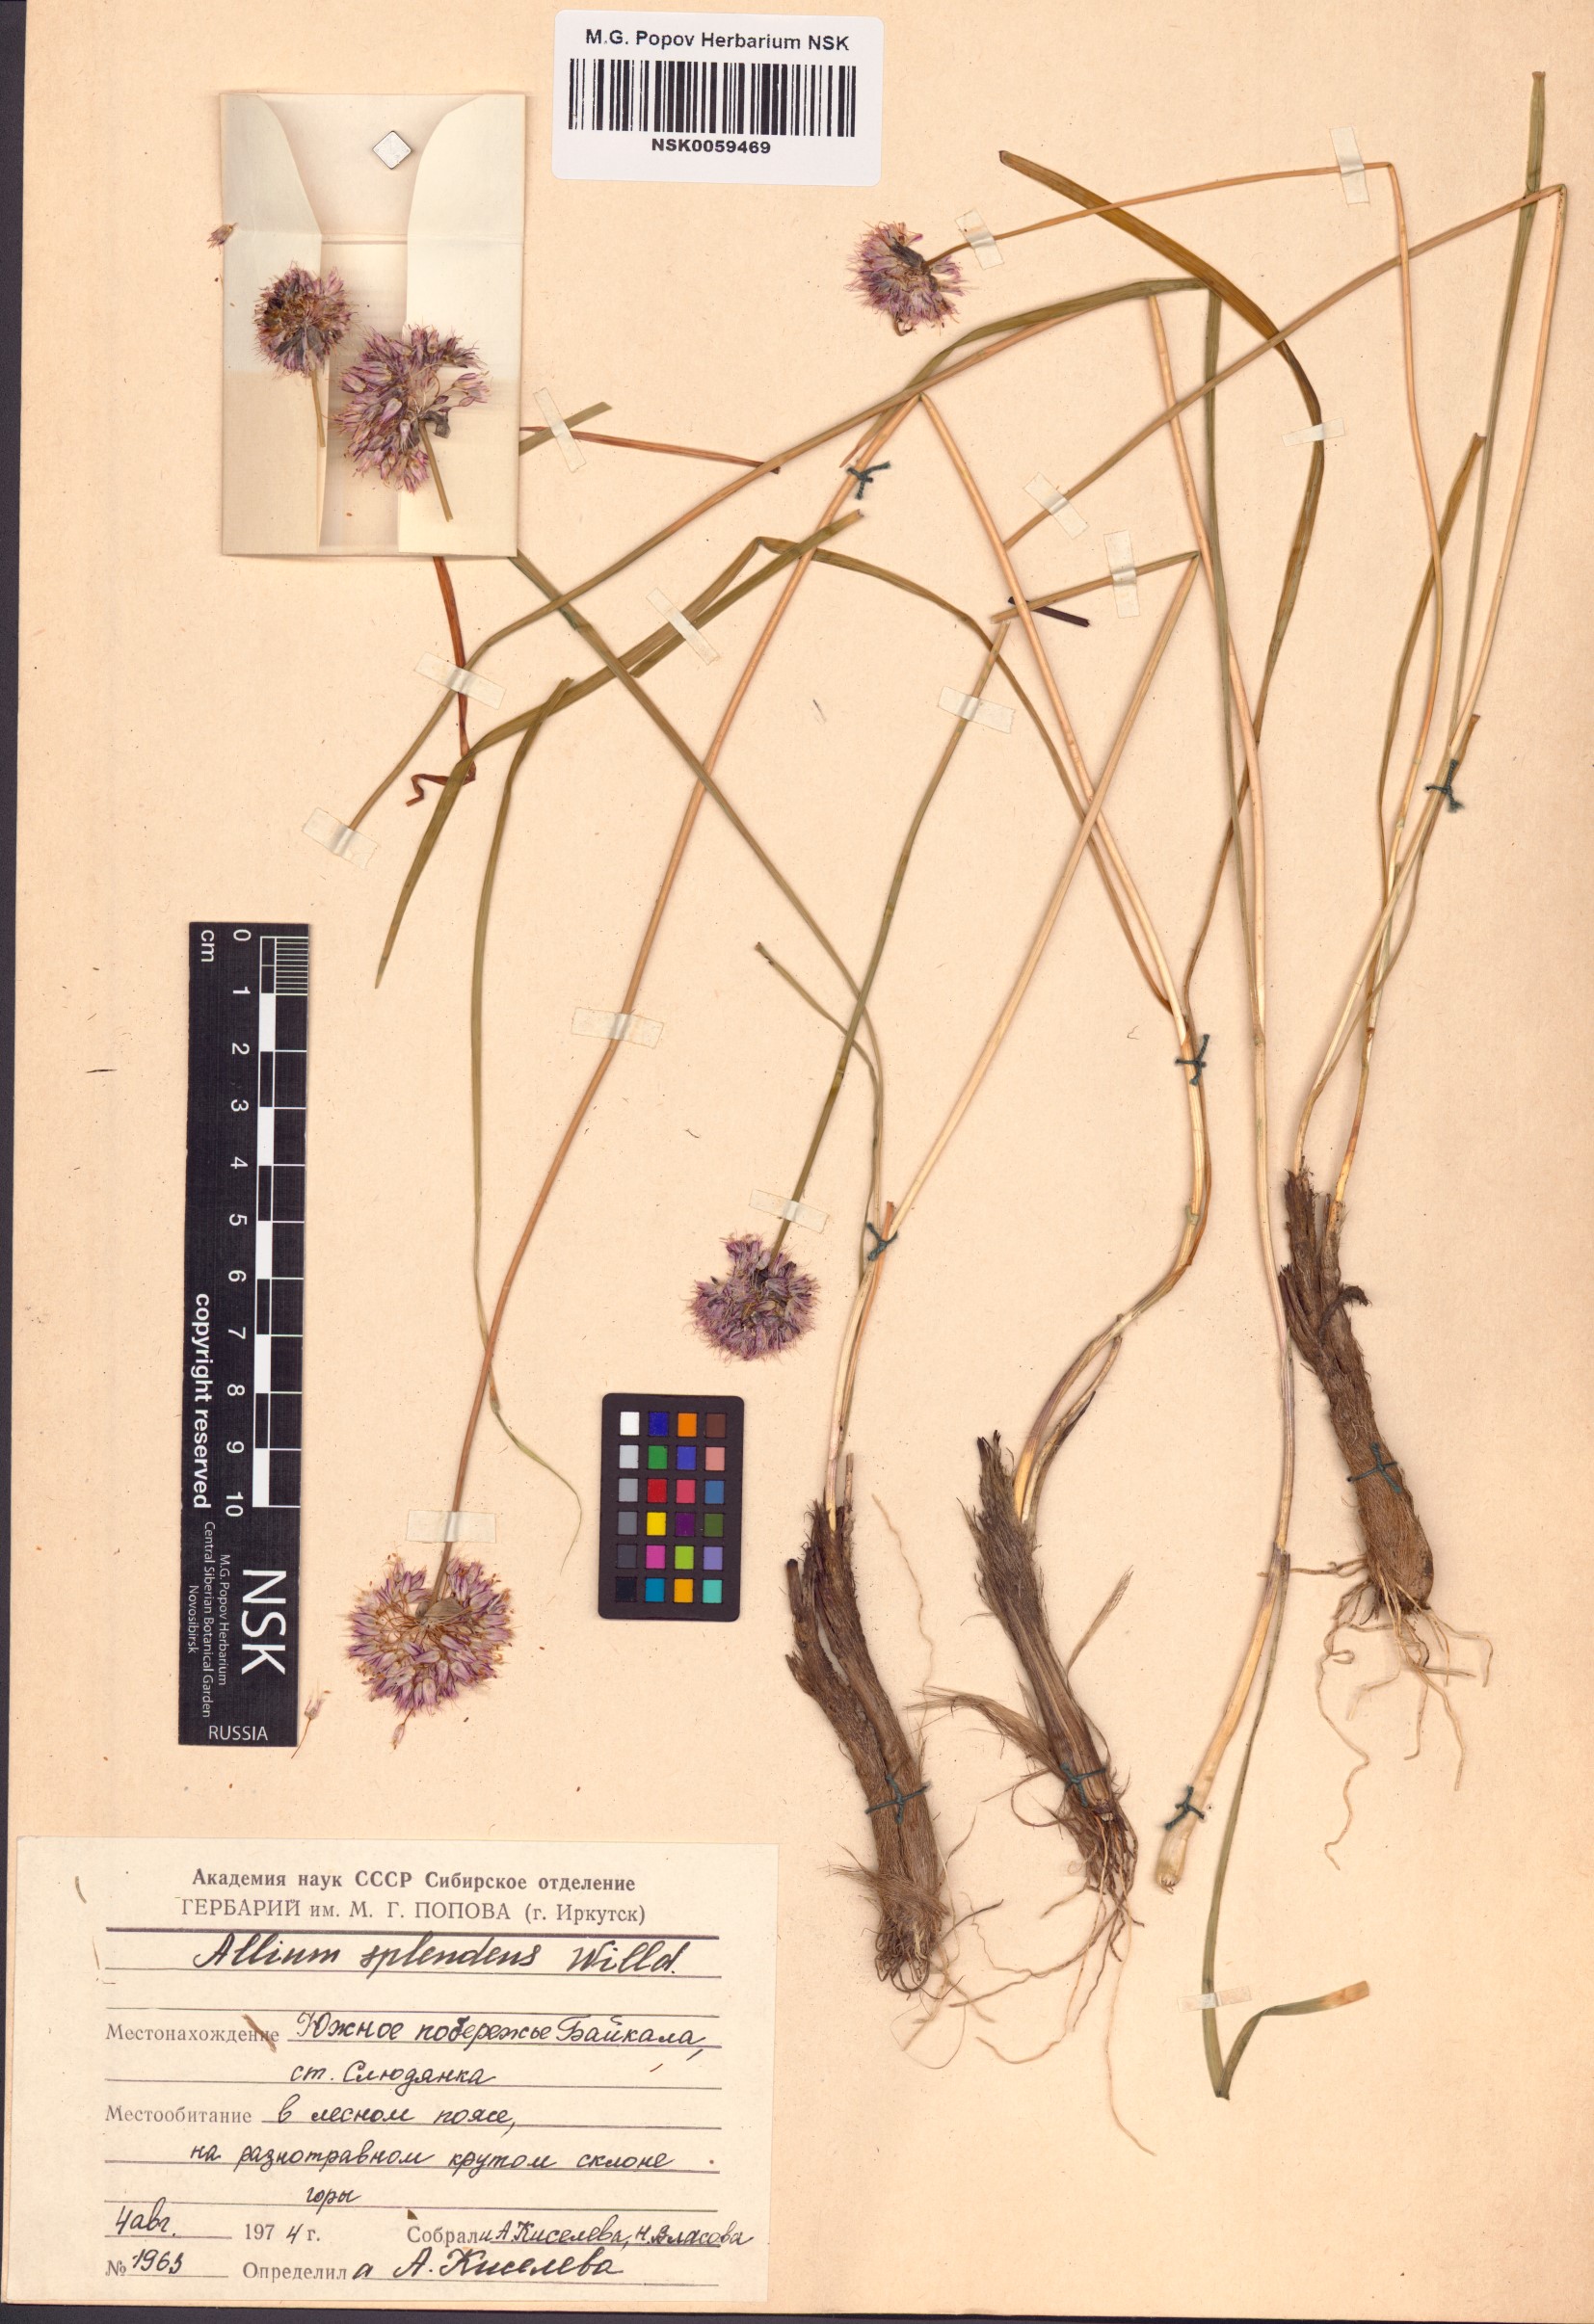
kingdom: Plantae
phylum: Tracheophyta
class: Liliopsida
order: Asparagales
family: Amaryllidaceae
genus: Allium
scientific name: Allium splendens
